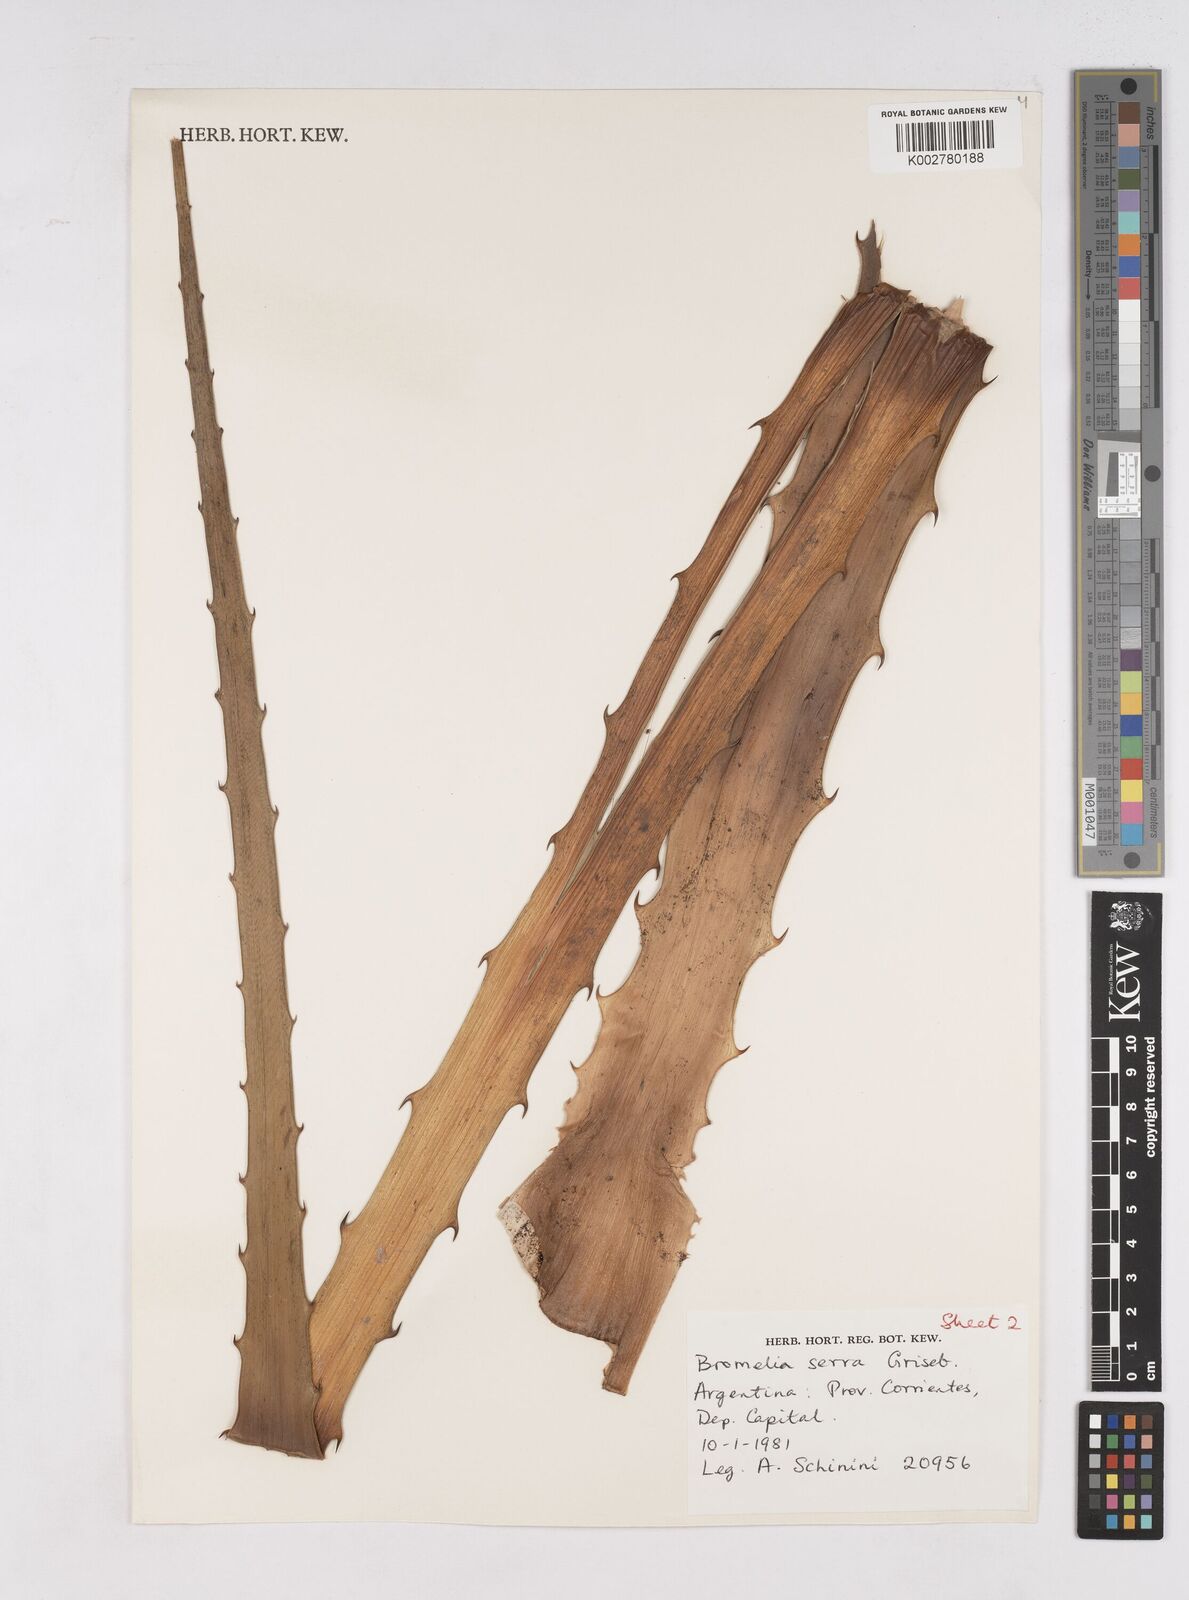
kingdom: Plantae
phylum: Tracheophyta
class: Liliopsida
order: Poales
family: Bromeliaceae
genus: Bromelia
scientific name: Bromelia serra
